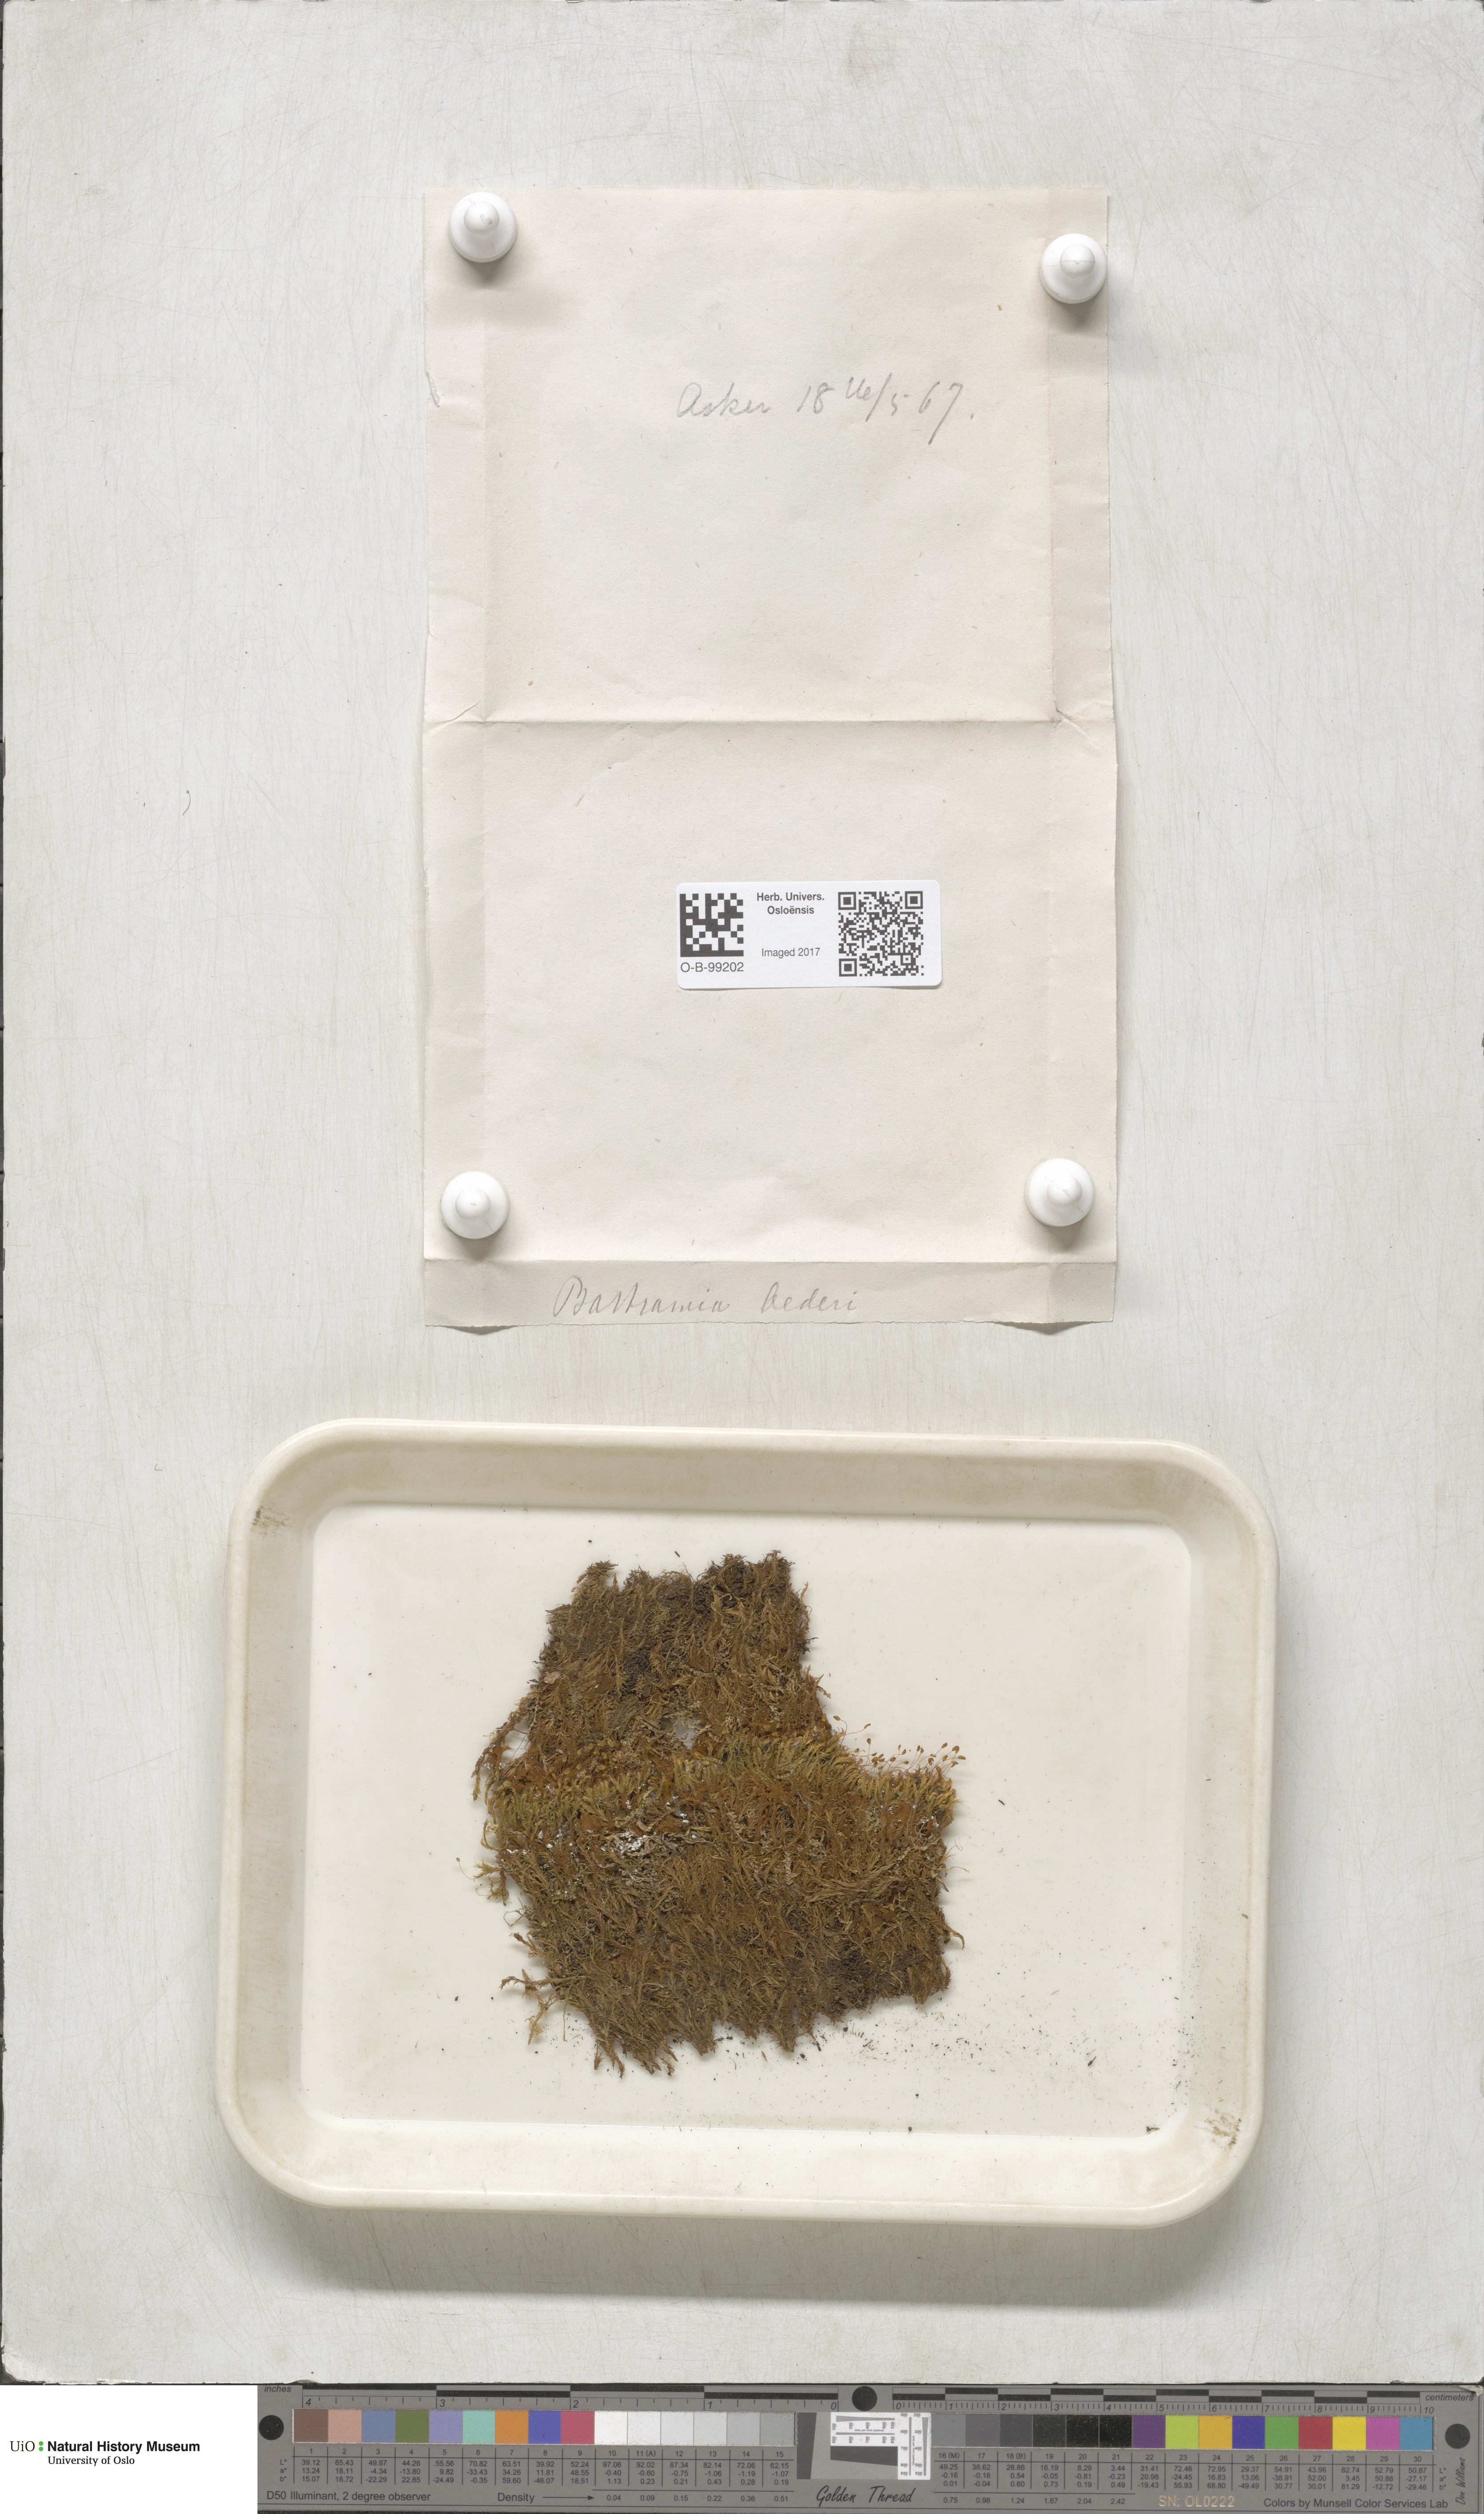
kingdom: Plantae
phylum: Bryophyta
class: Bryopsida
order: Bartramiales
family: Bartramiaceae
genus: Plagiopus
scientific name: Plagiopus oederianus
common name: Oeder's apple moss
